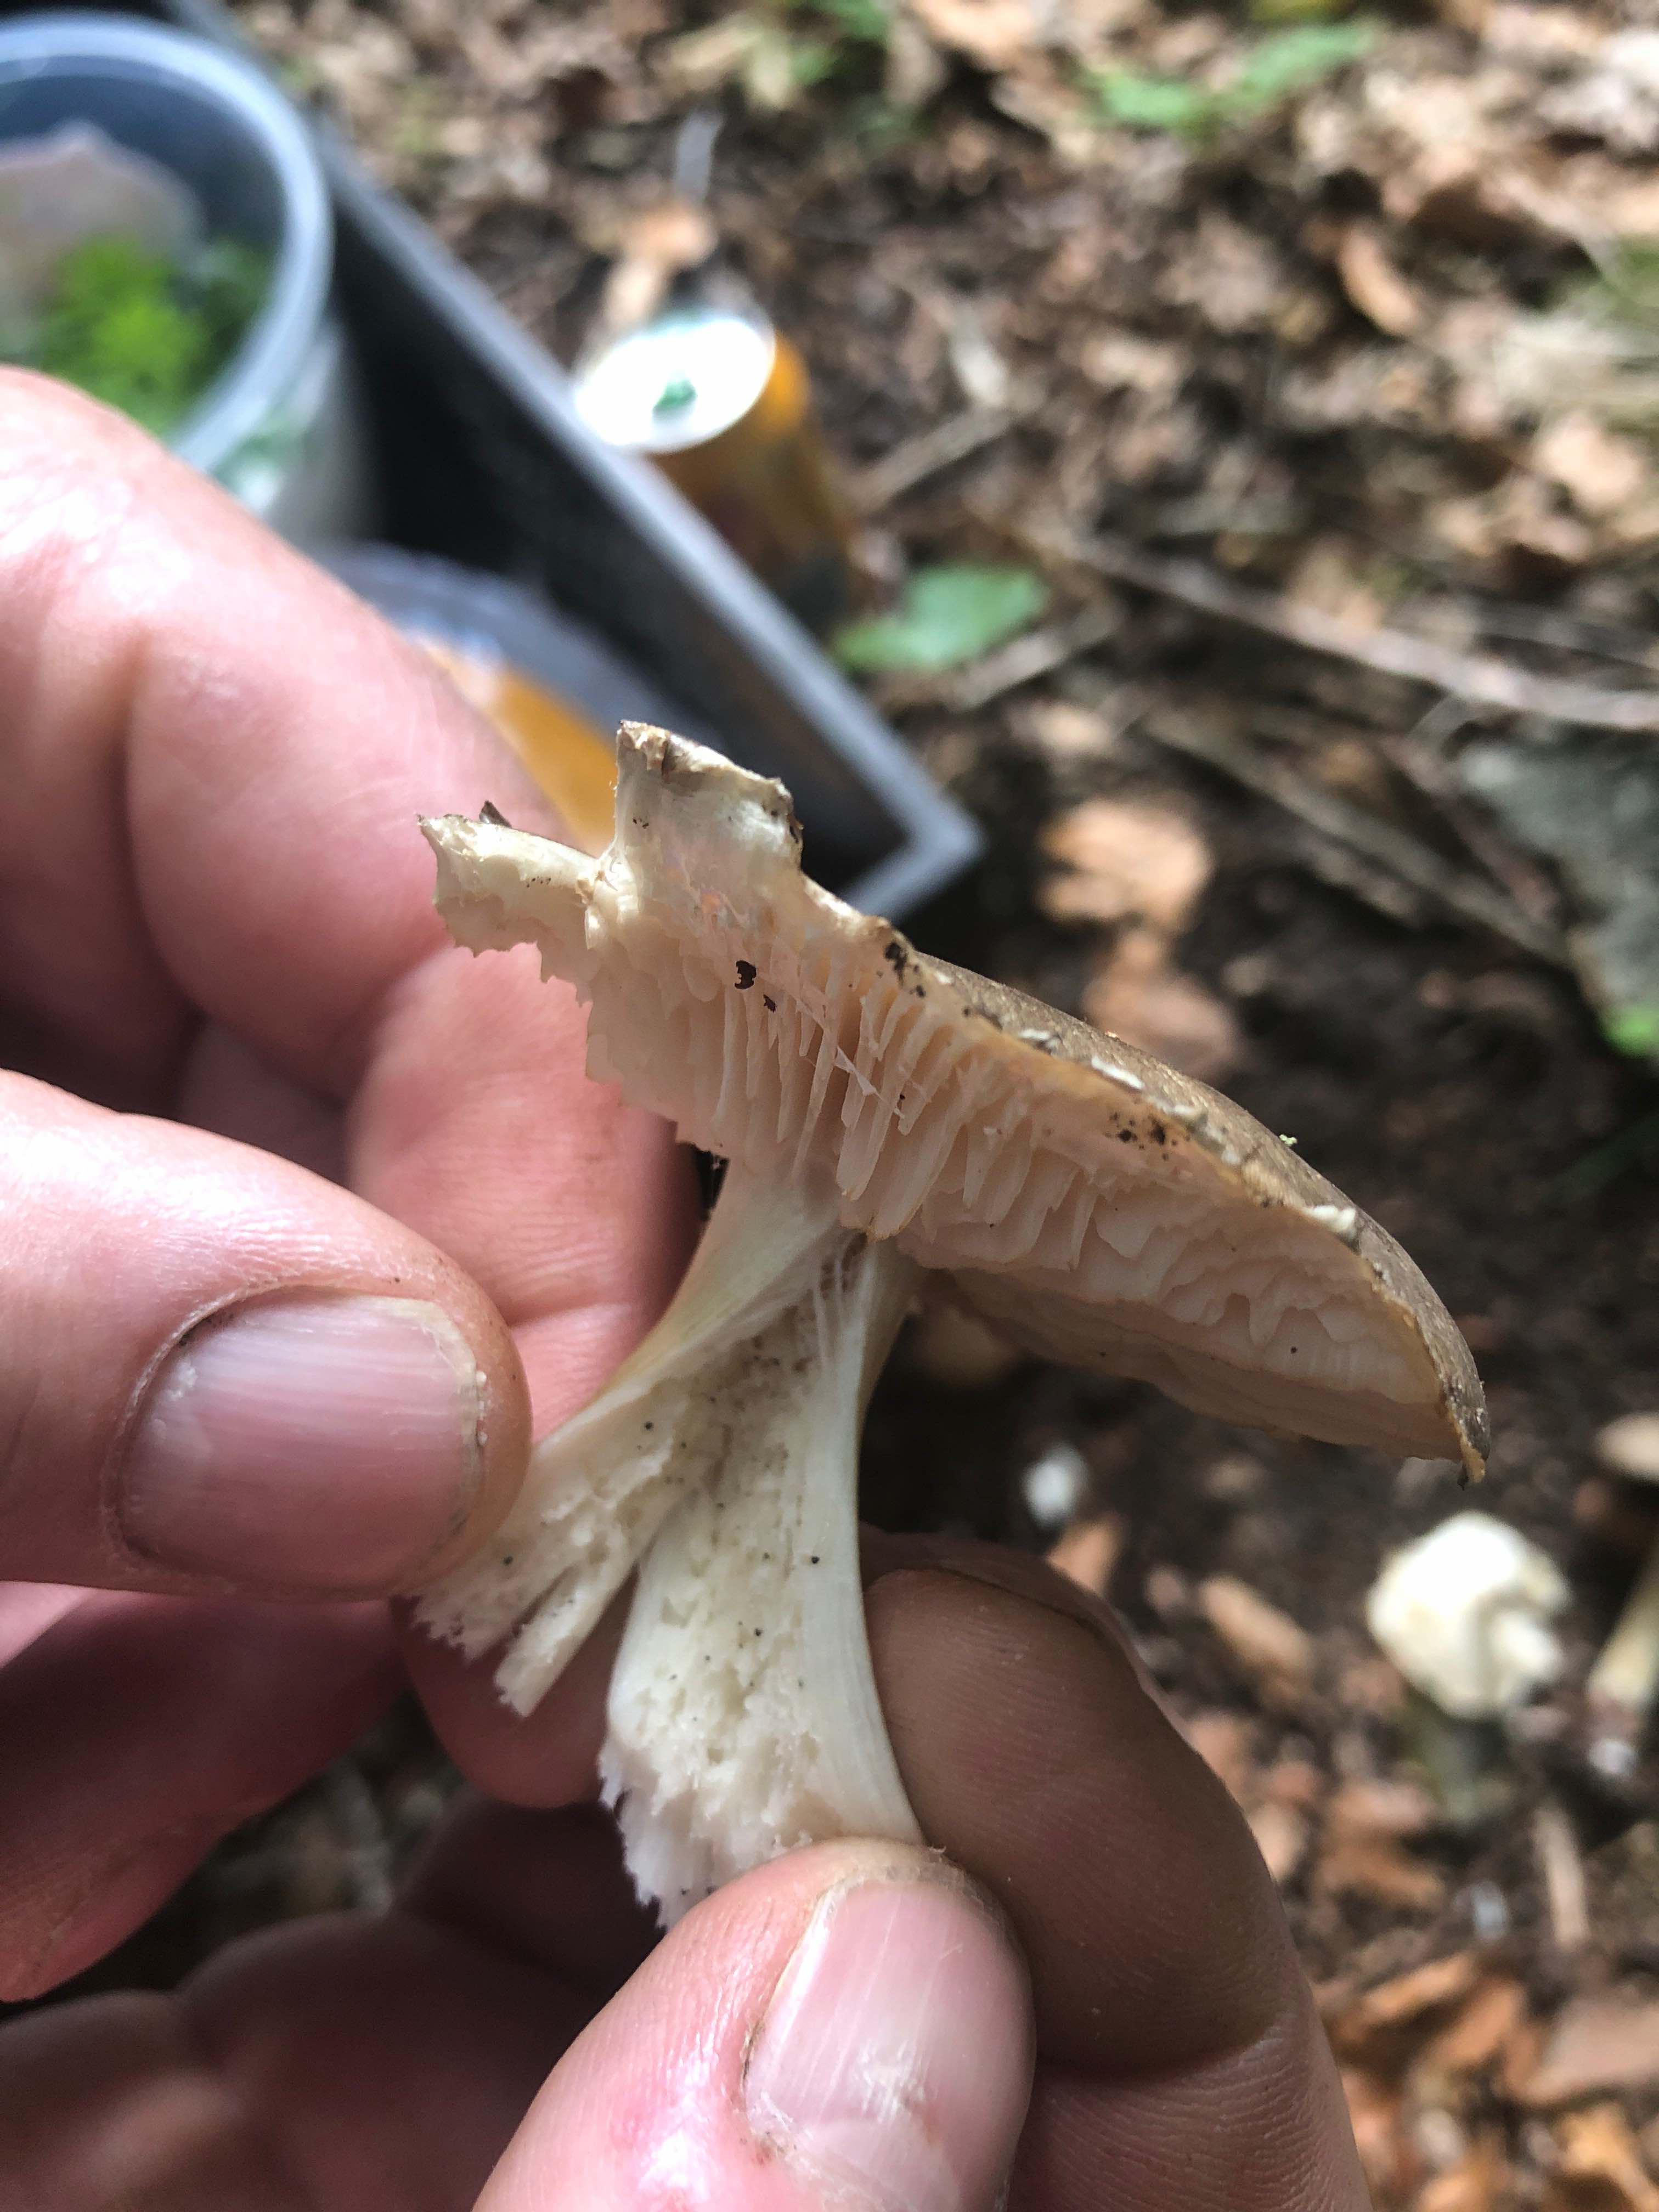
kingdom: Fungi
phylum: Basidiomycota
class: Agaricomycetes
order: Agaricales
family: Tricholomataceae
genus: Megacollybia
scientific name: Megacollybia platyphylla
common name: bredbladet væbnerhat
